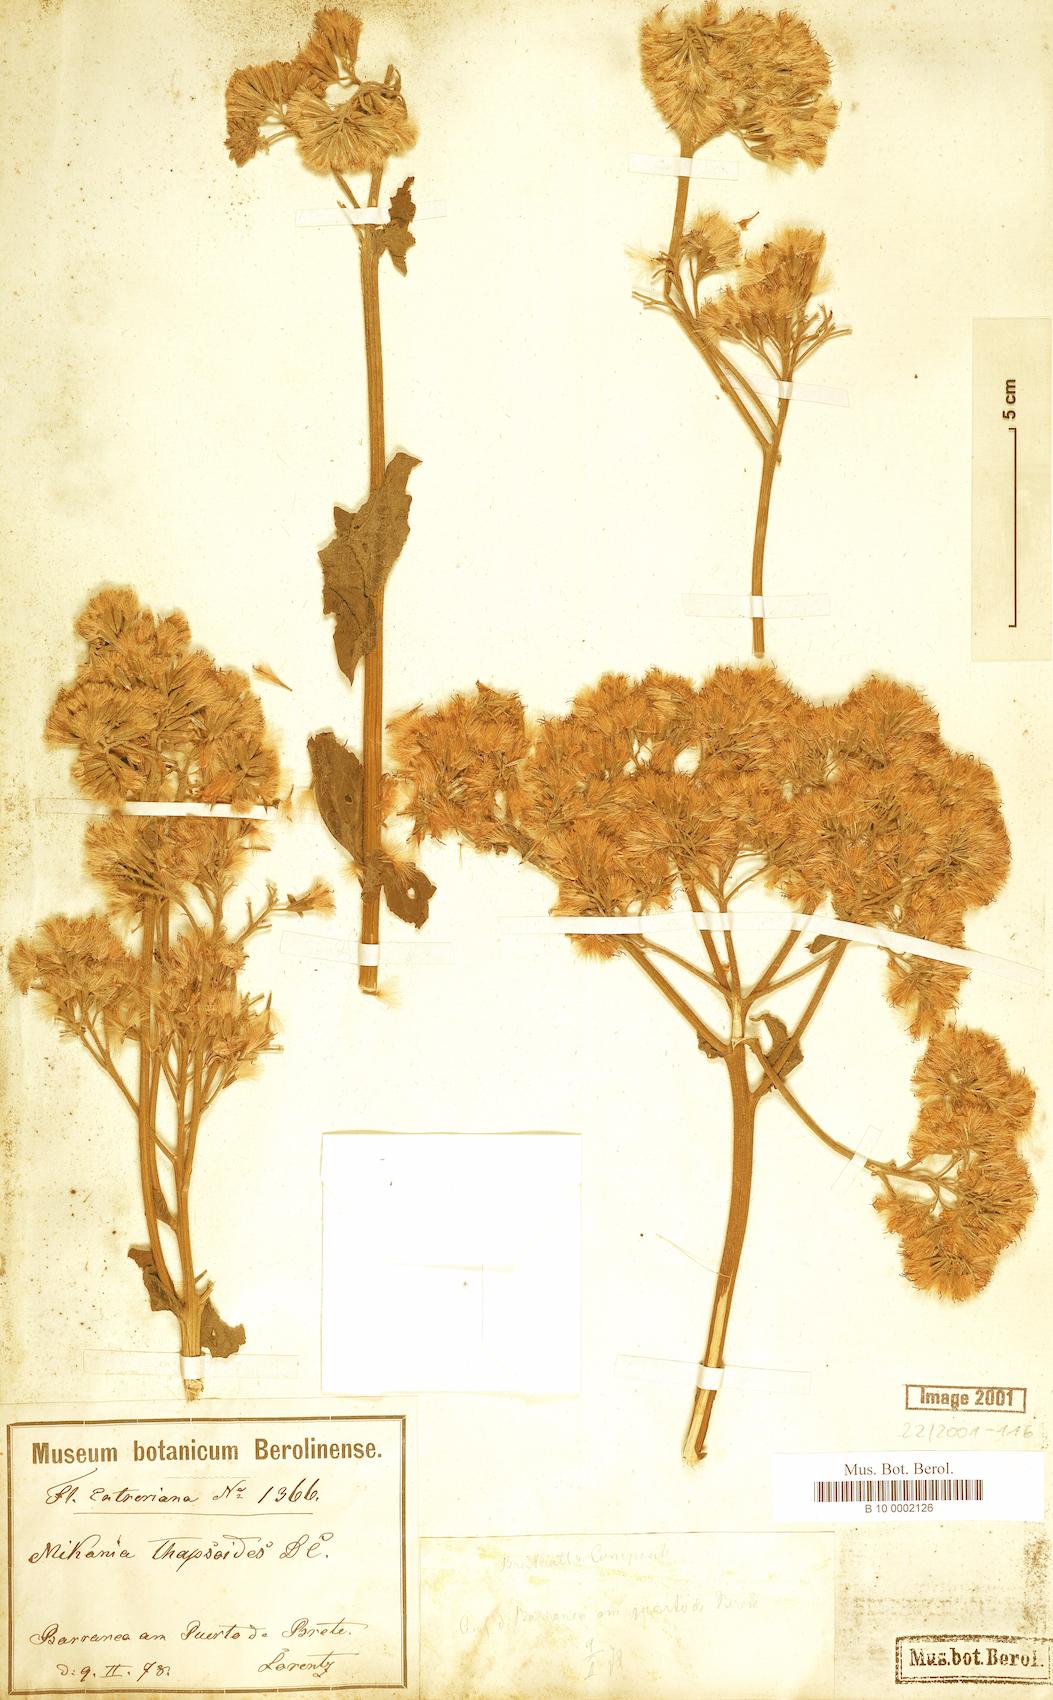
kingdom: Plantae
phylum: Tracheophyta
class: Magnoliopsida
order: Asterales
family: Asteraceae
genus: Mikania
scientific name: Mikania thapsoides
